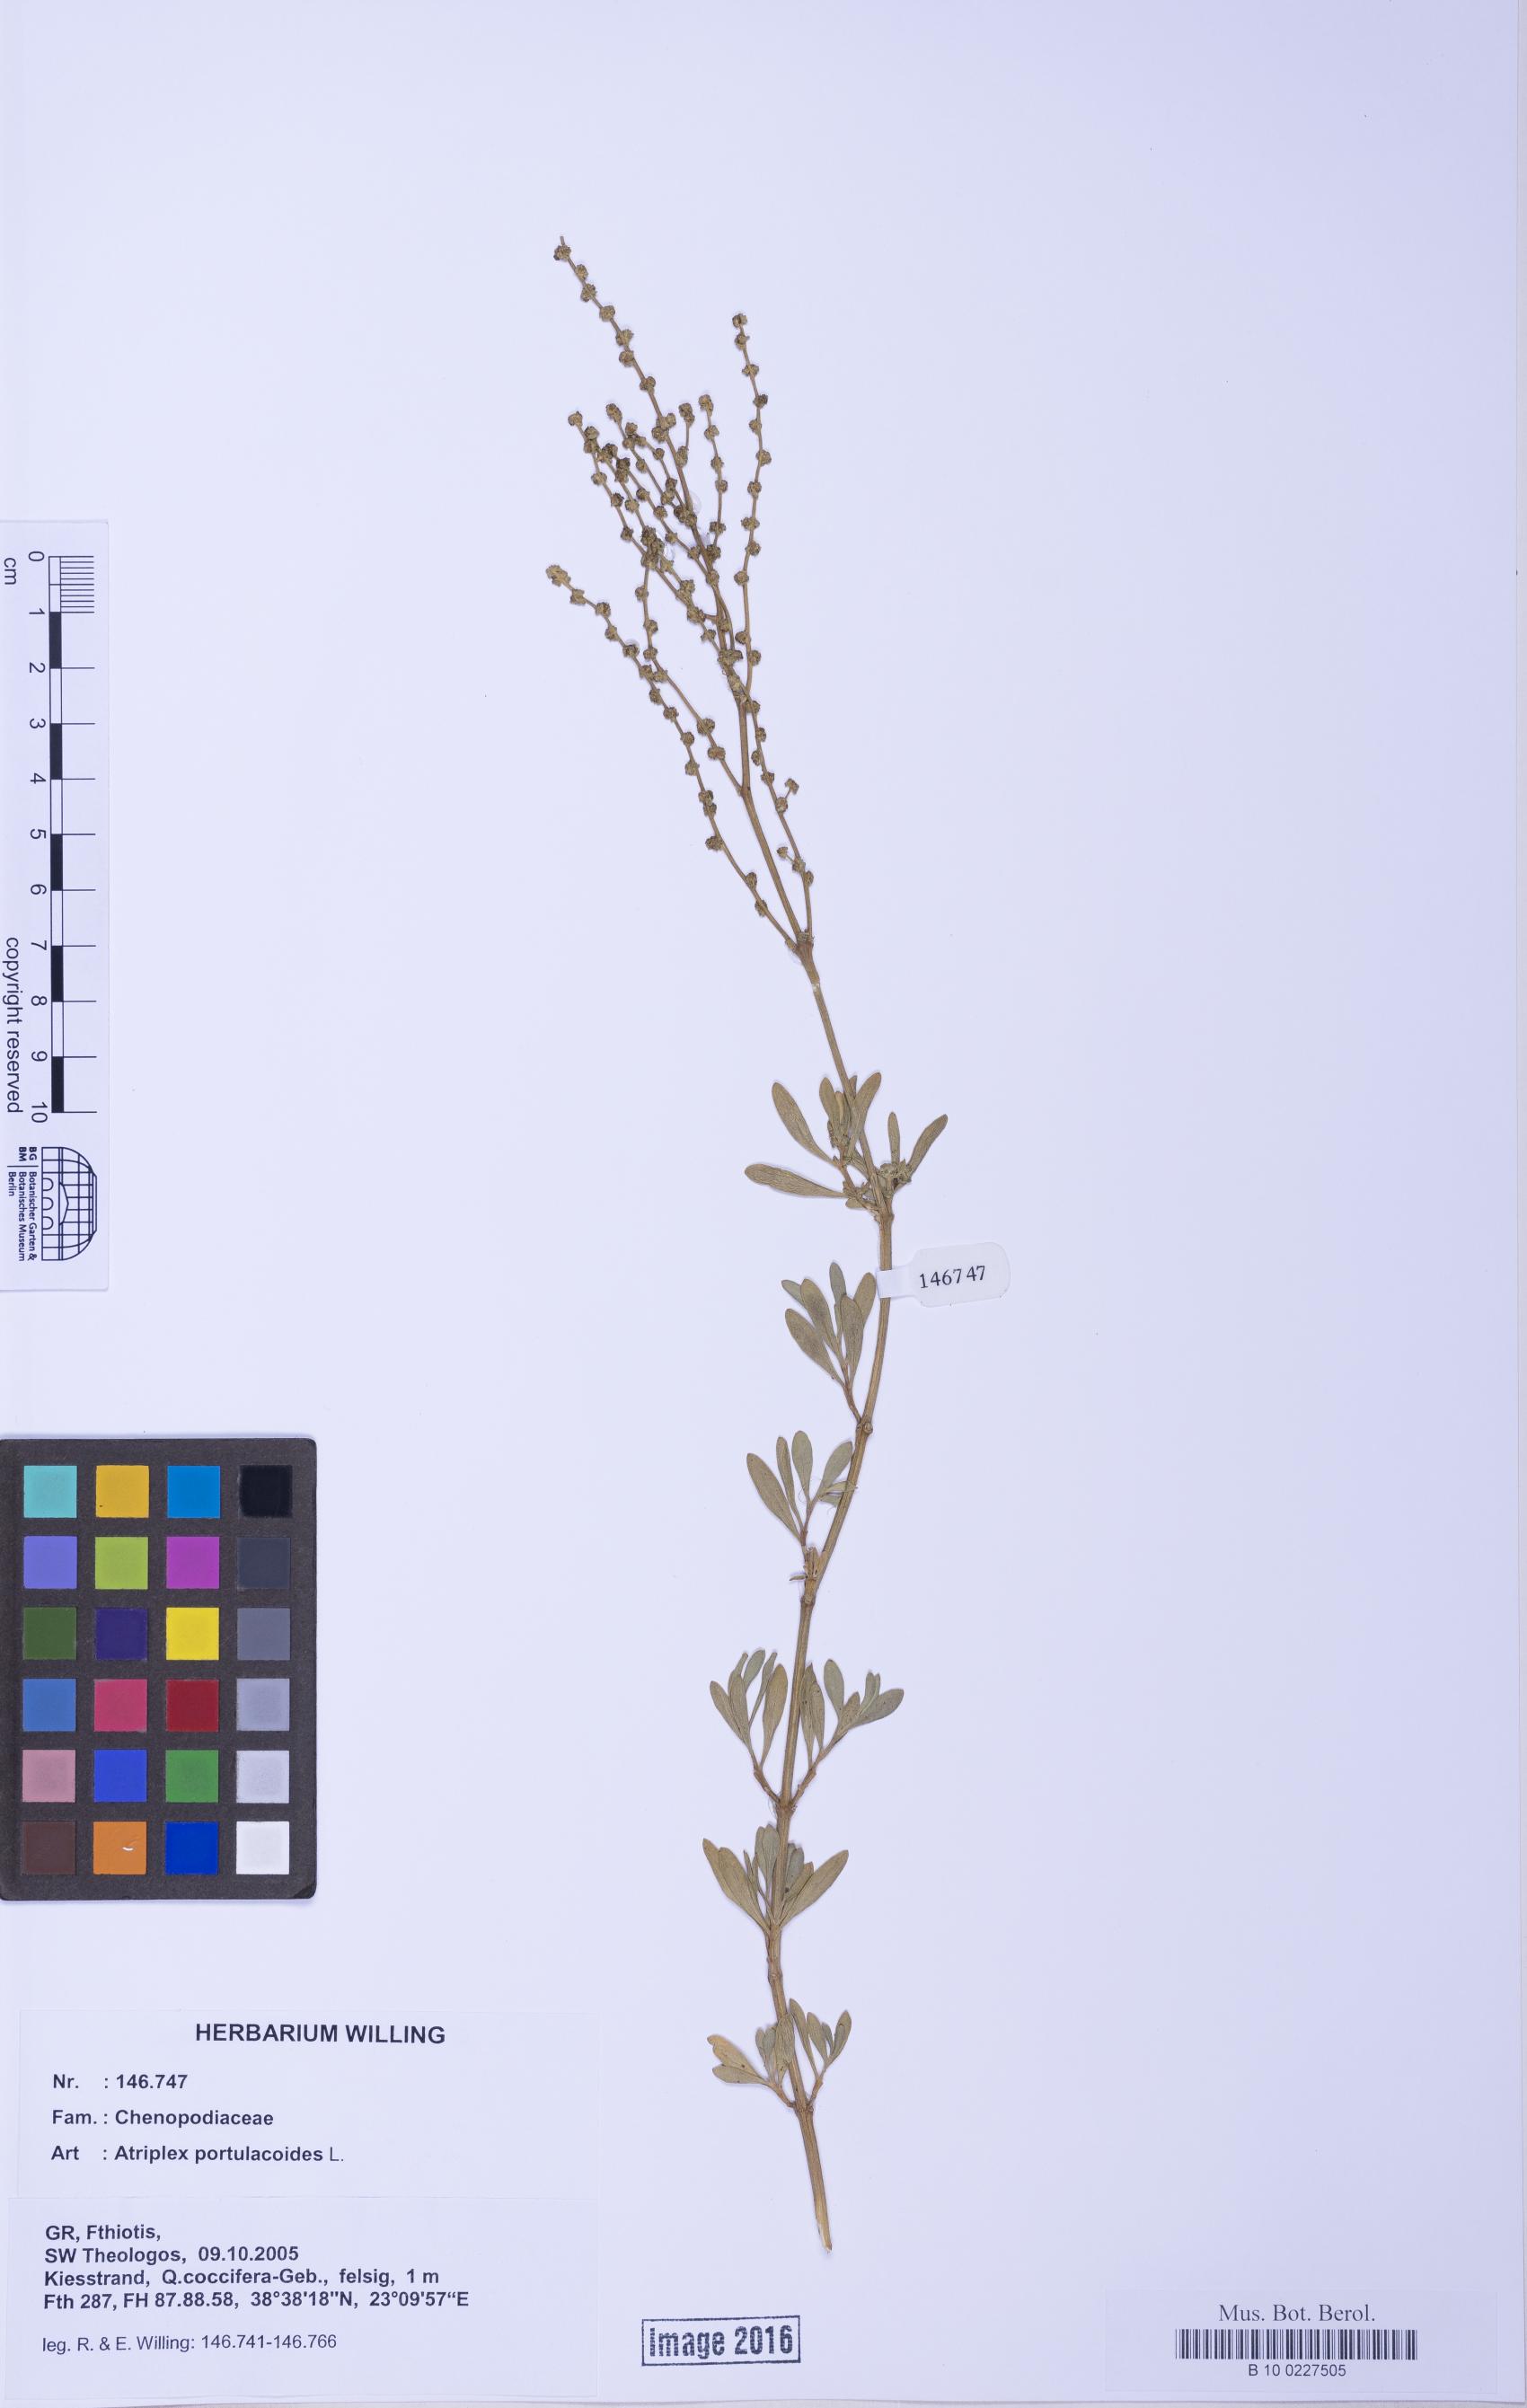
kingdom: Plantae
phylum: Tracheophyta
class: Magnoliopsida
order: Caryophyllales
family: Amaranthaceae
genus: Halimione
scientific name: Halimione portulacoides
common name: Sea-purslane
